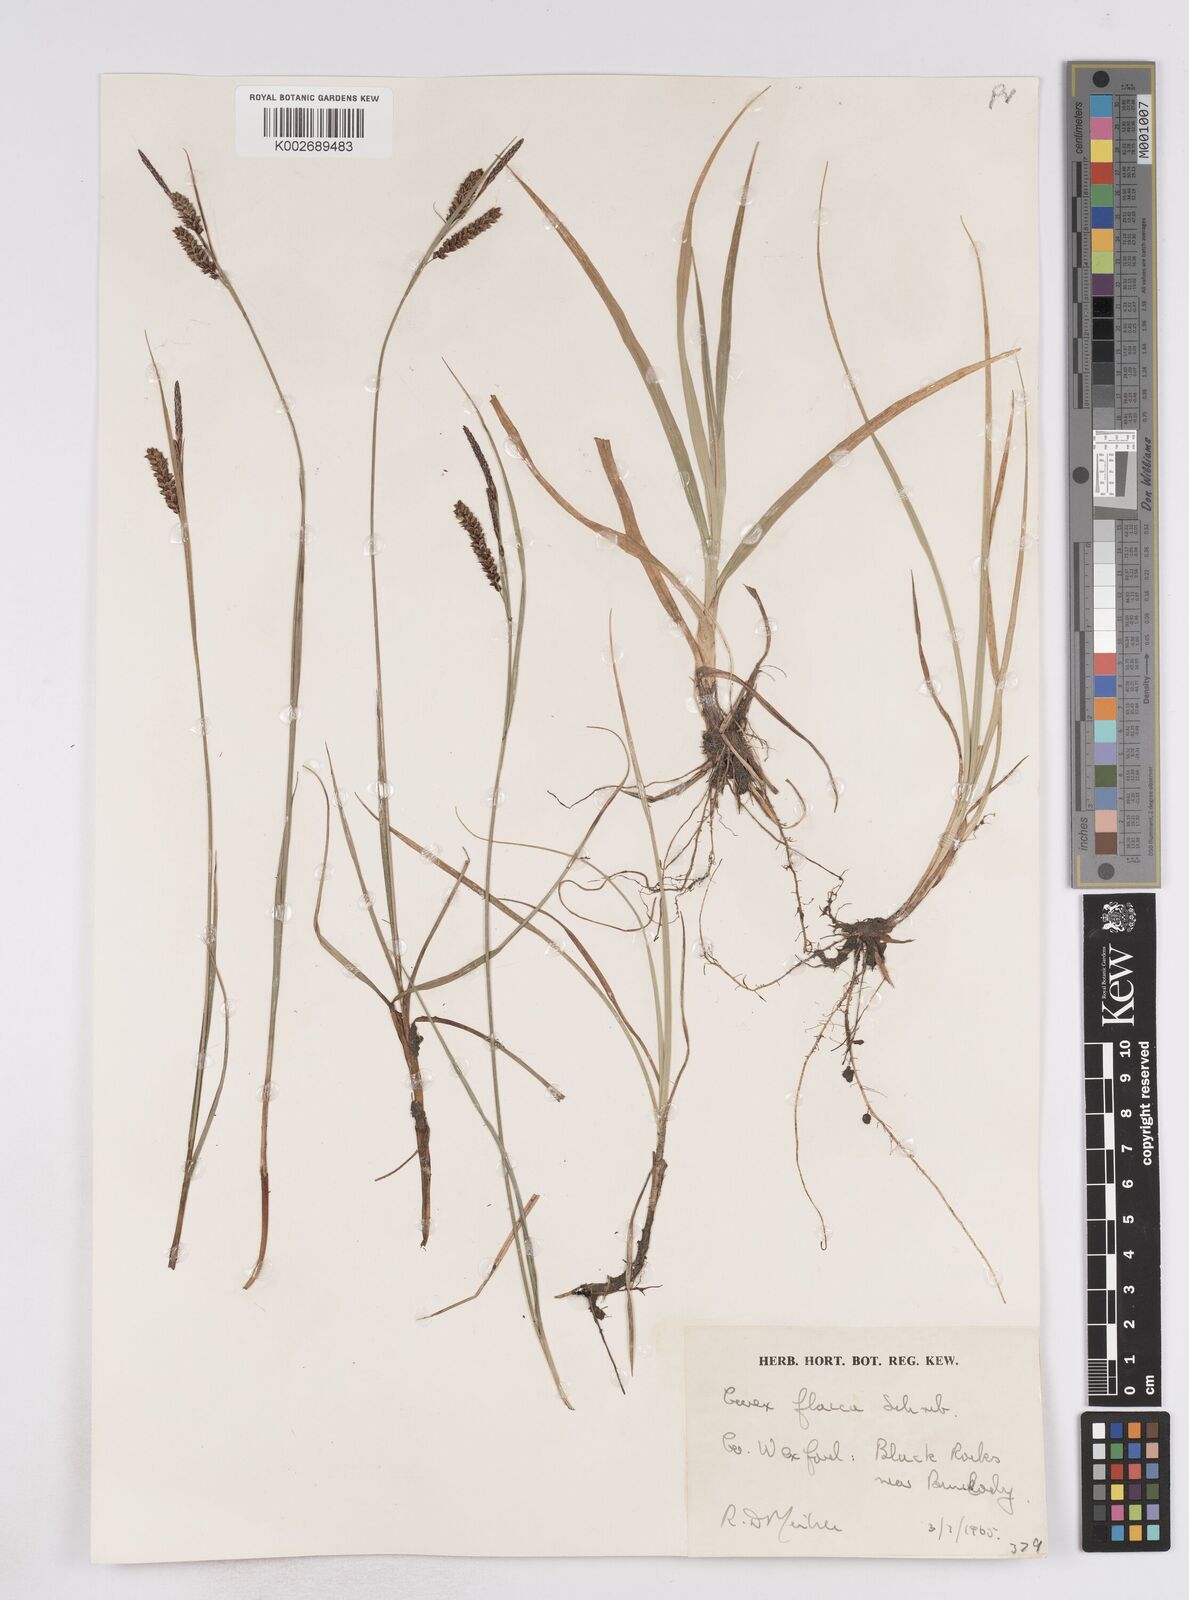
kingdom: Plantae
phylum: Tracheophyta
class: Liliopsida
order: Poales
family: Cyperaceae
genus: Carex
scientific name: Carex flacca
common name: Glaucous sedge
